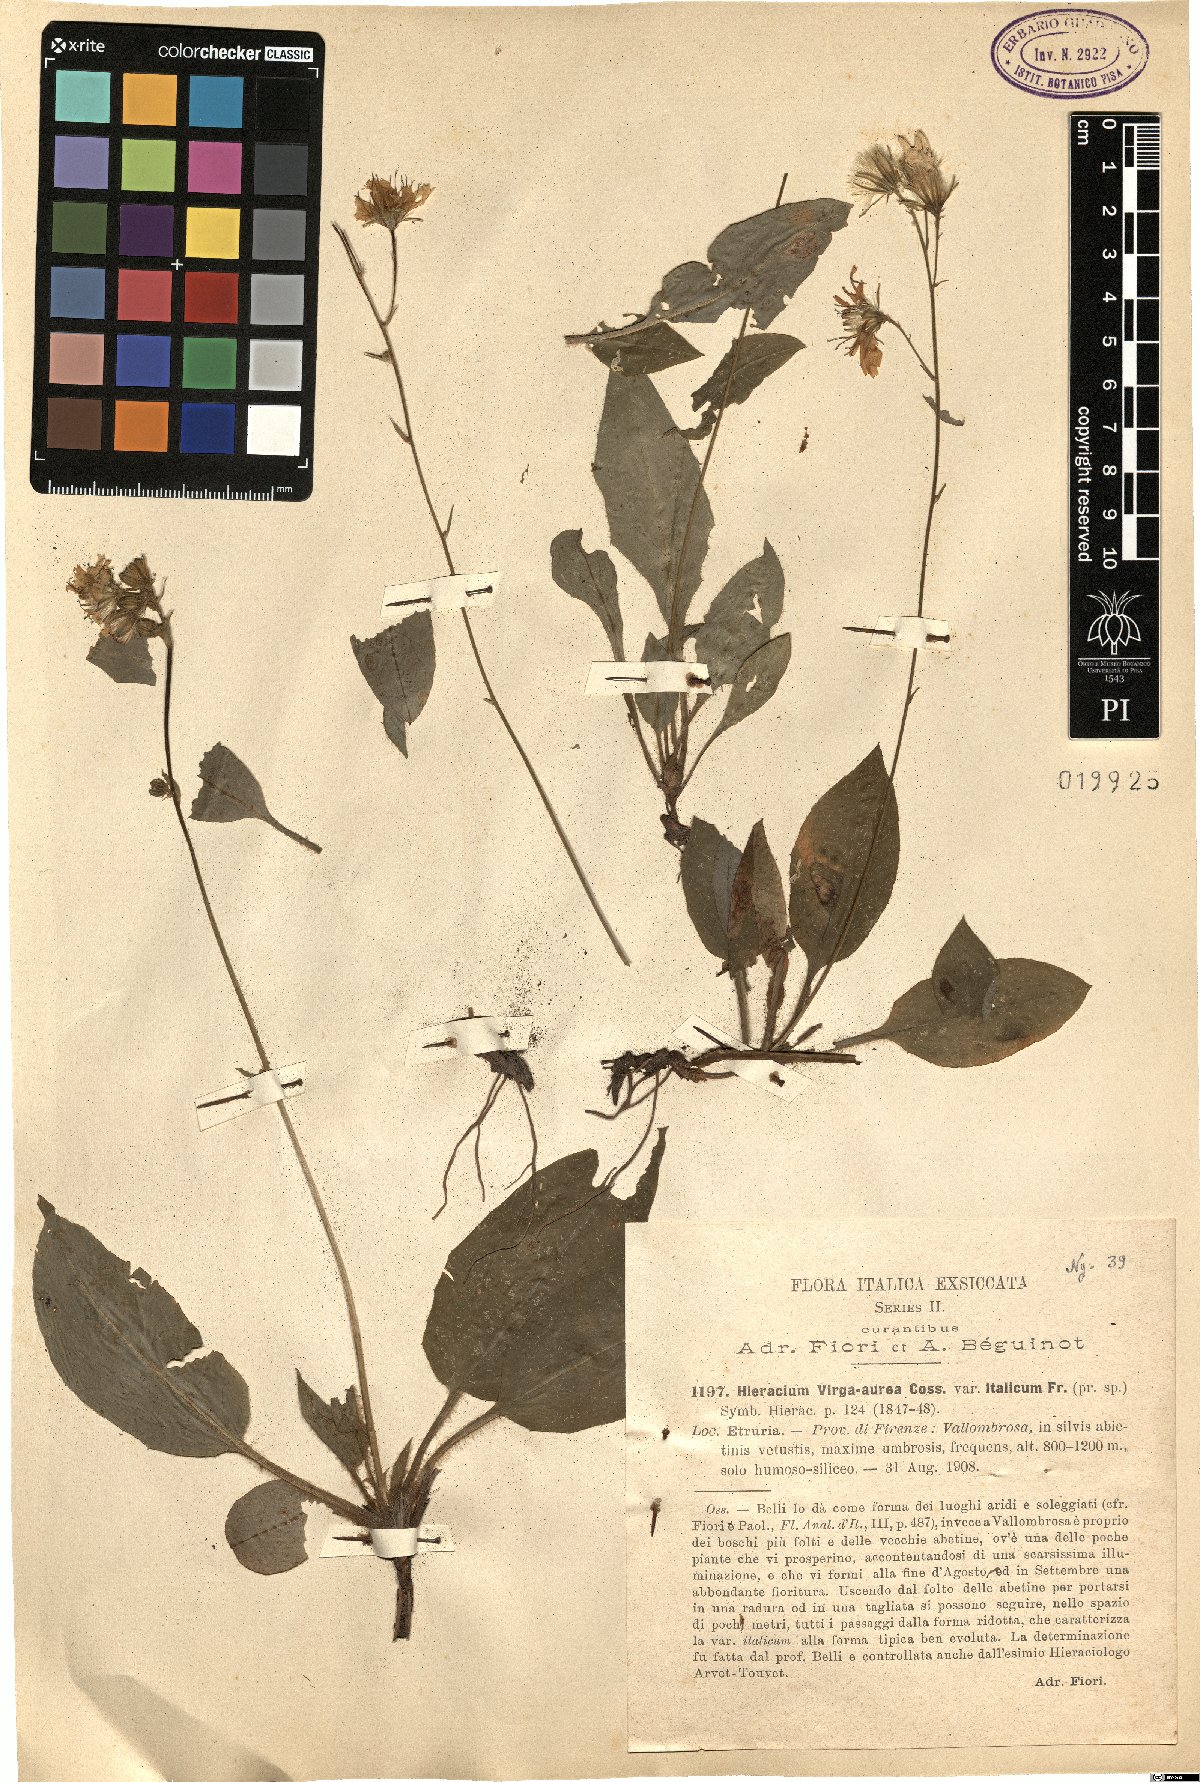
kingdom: Plantae
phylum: Tracheophyta
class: Magnoliopsida
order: Asterales
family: Asteraceae
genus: Hieracium
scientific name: Hieracium racemosum
